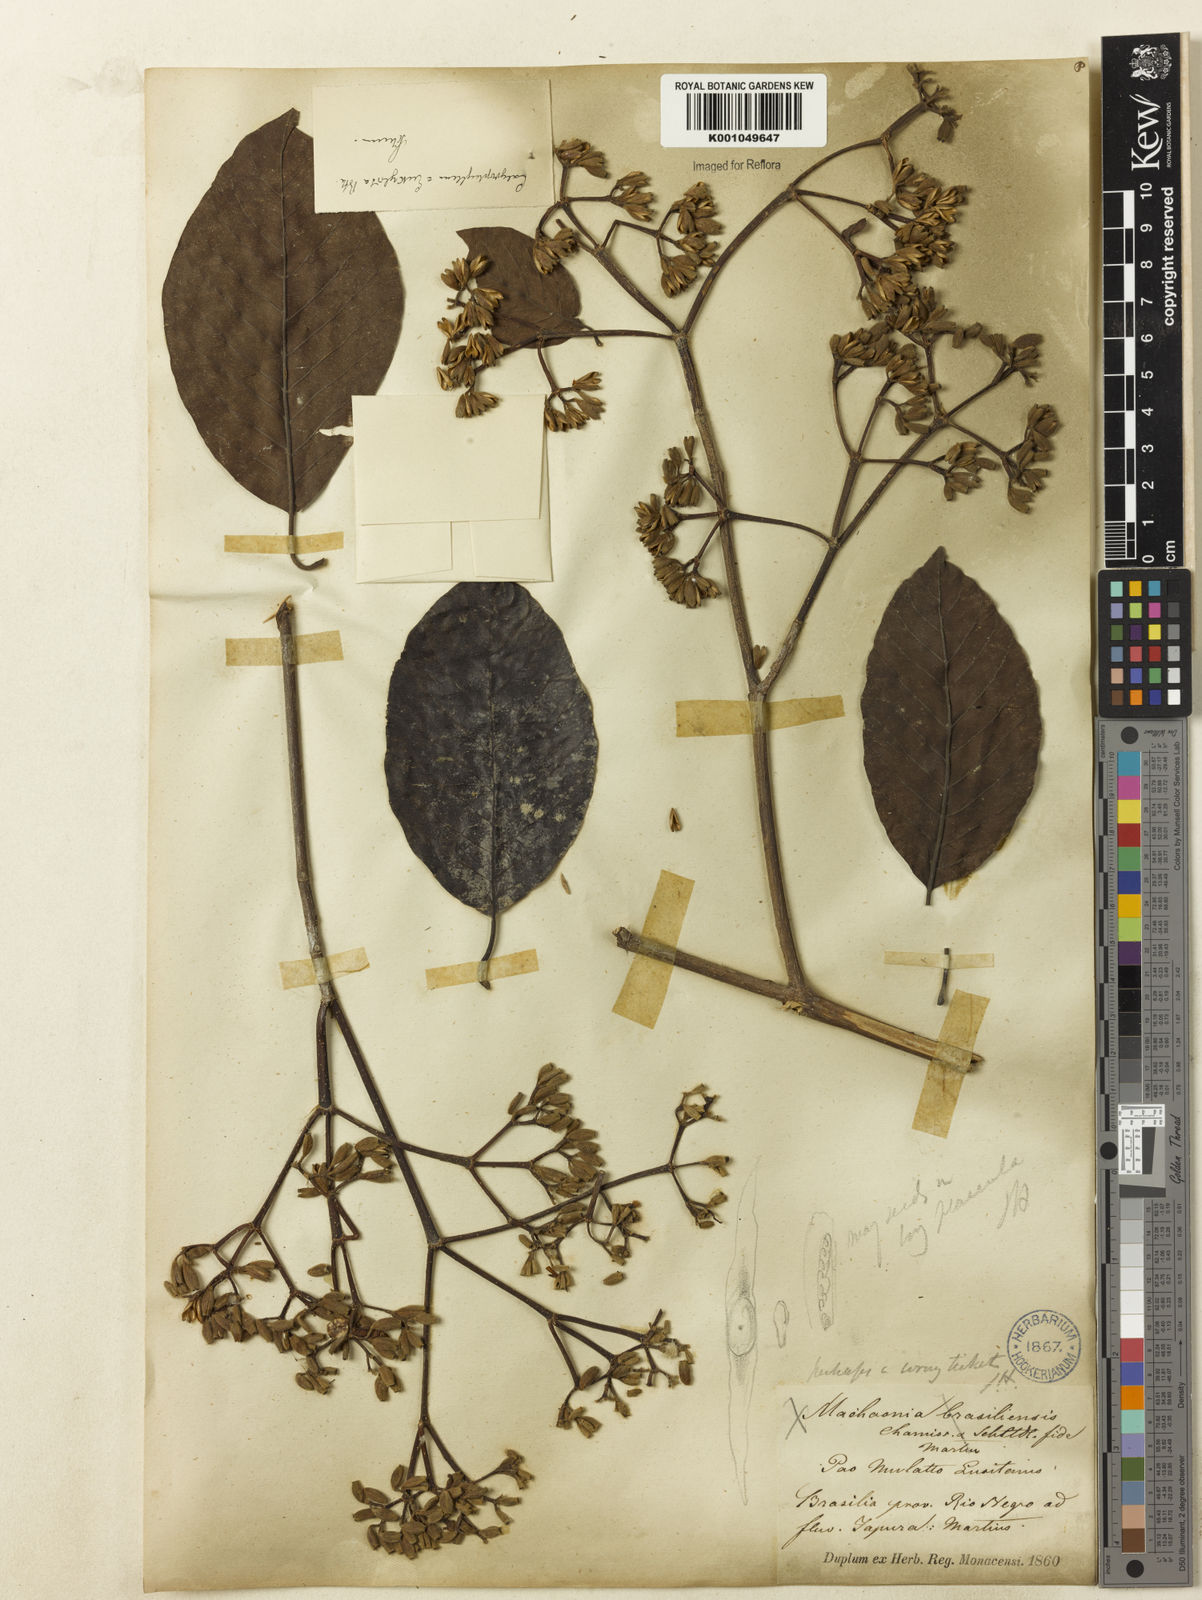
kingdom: Plantae
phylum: Tracheophyta
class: Magnoliopsida
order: Gentianales
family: Rubiaceae
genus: Calycophyllum
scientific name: Calycophyllum spruceanum
